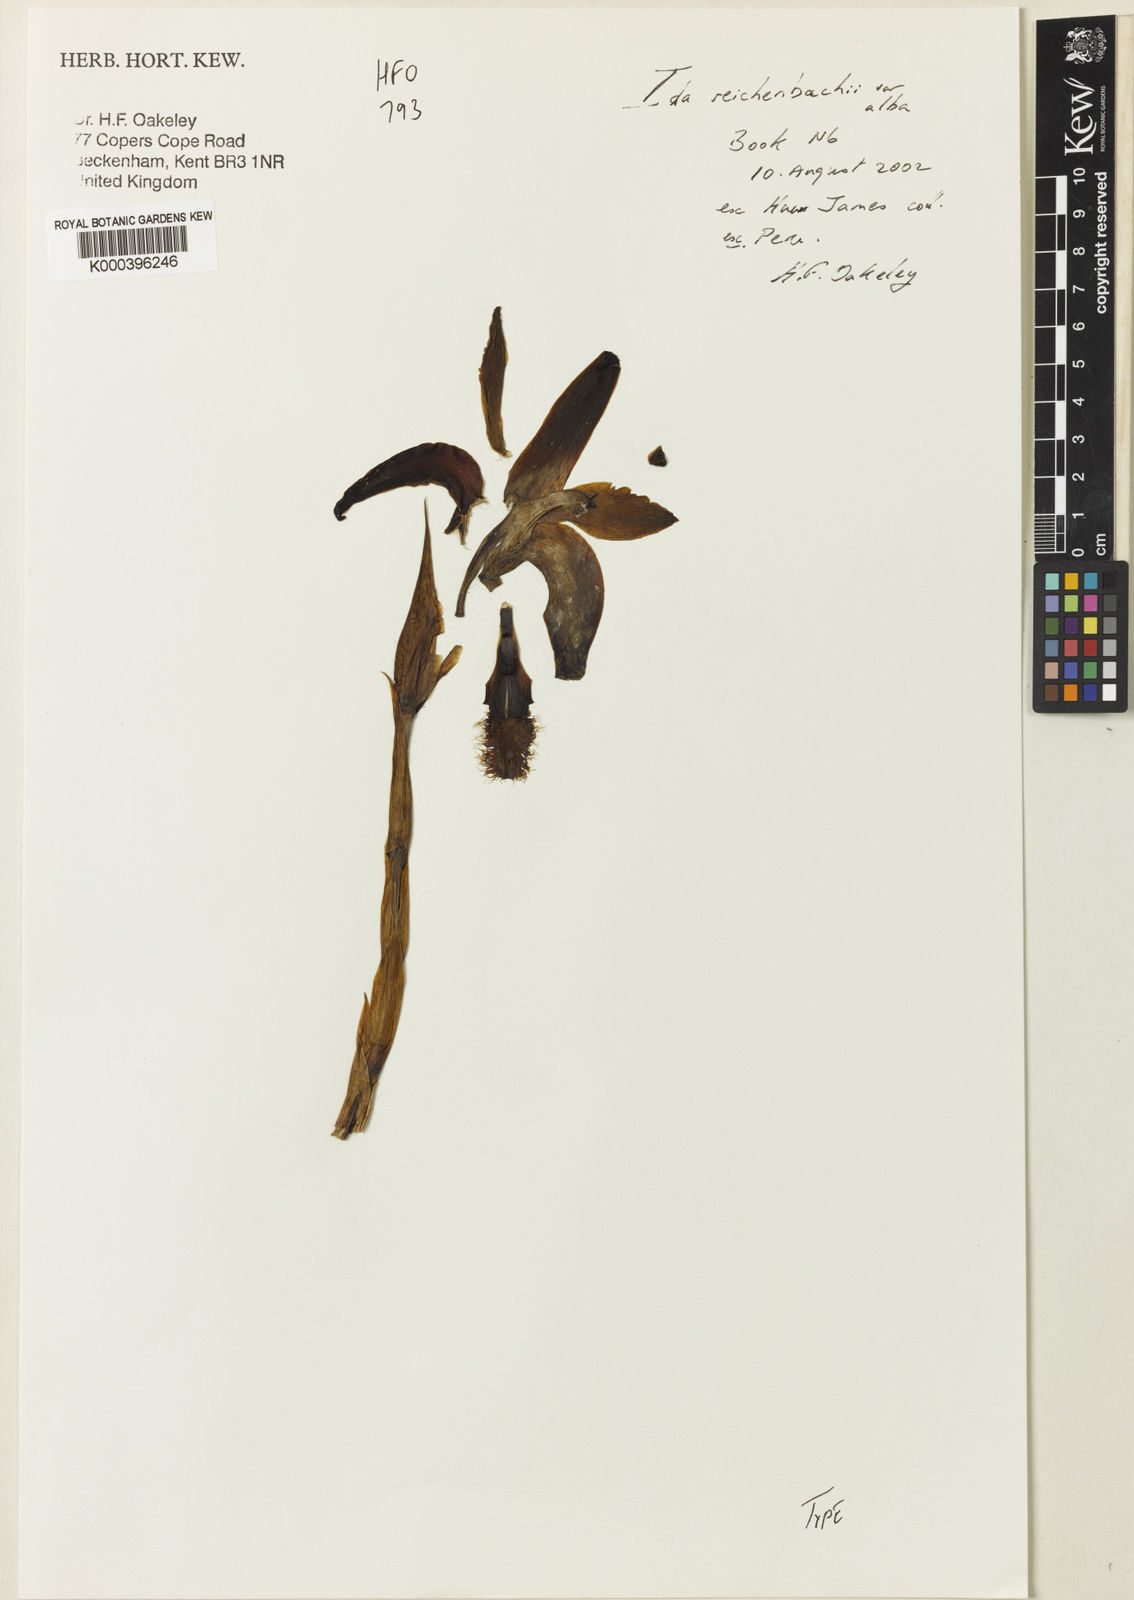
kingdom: Plantae
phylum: Tracheophyta
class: Liliopsida
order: Asparagales
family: Orchidaceae
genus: Ida
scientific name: Ida reichenbachii
